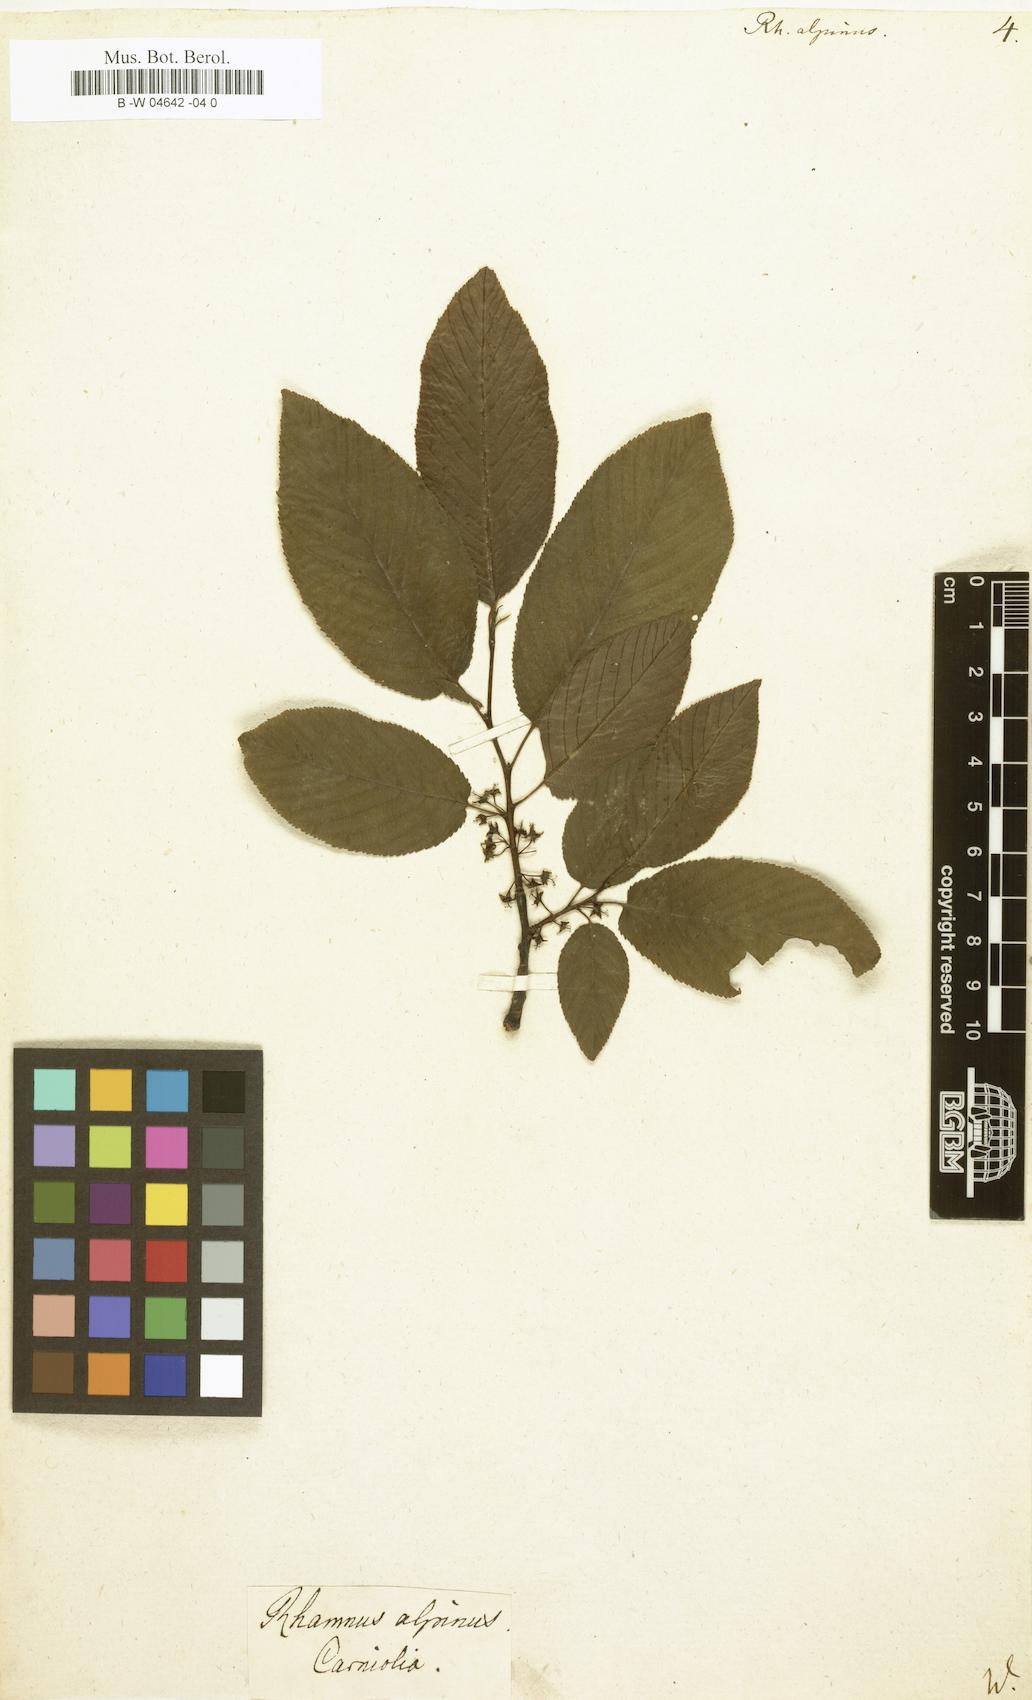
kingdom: Plantae
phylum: Tracheophyta
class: Magnoliopsida
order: Rosales
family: Rhamnaceae
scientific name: Rhamnaceae
